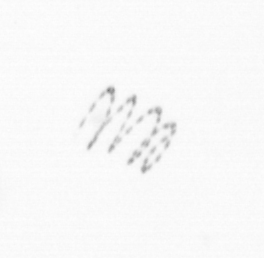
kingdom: Chromista
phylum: Ochrophyta
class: Bacillariophyceae
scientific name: Bacillariophyceae
